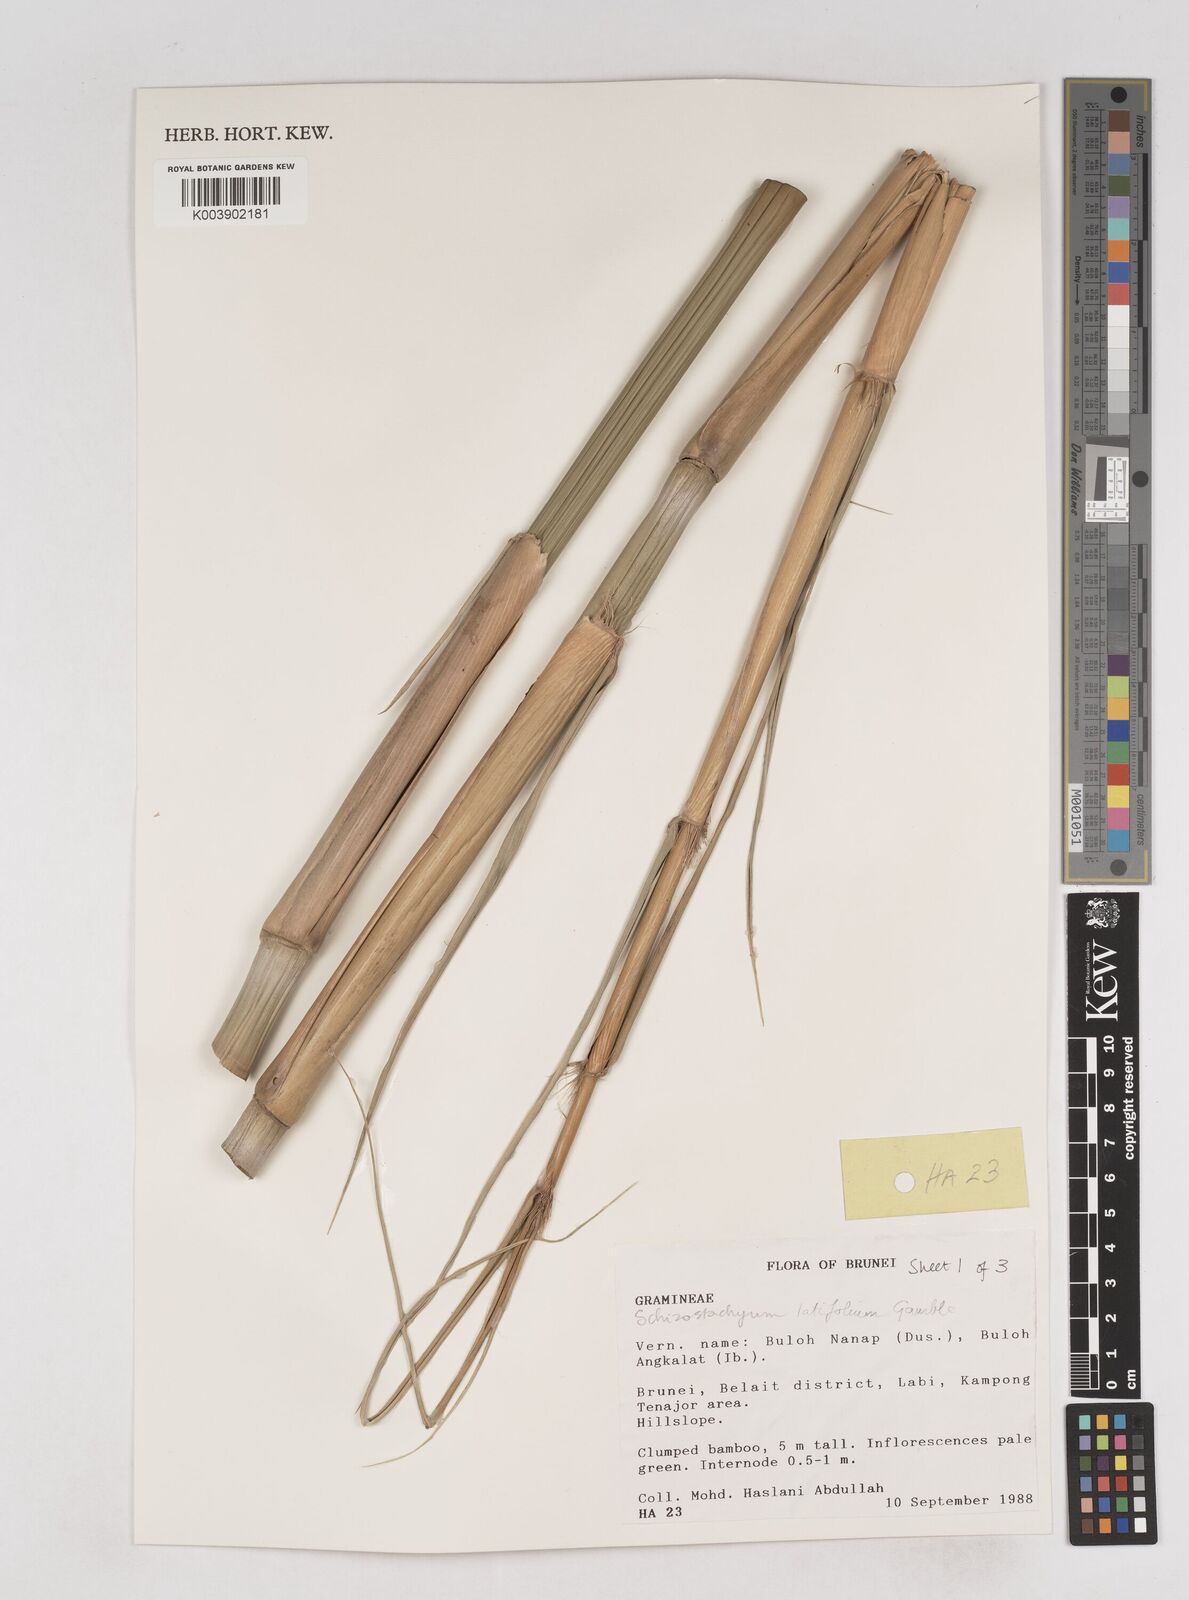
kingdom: Plantae
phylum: Tracheophyta
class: Liliopsida
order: Poales
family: Poaceae
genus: Schizostachyum
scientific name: Schizostachyum
